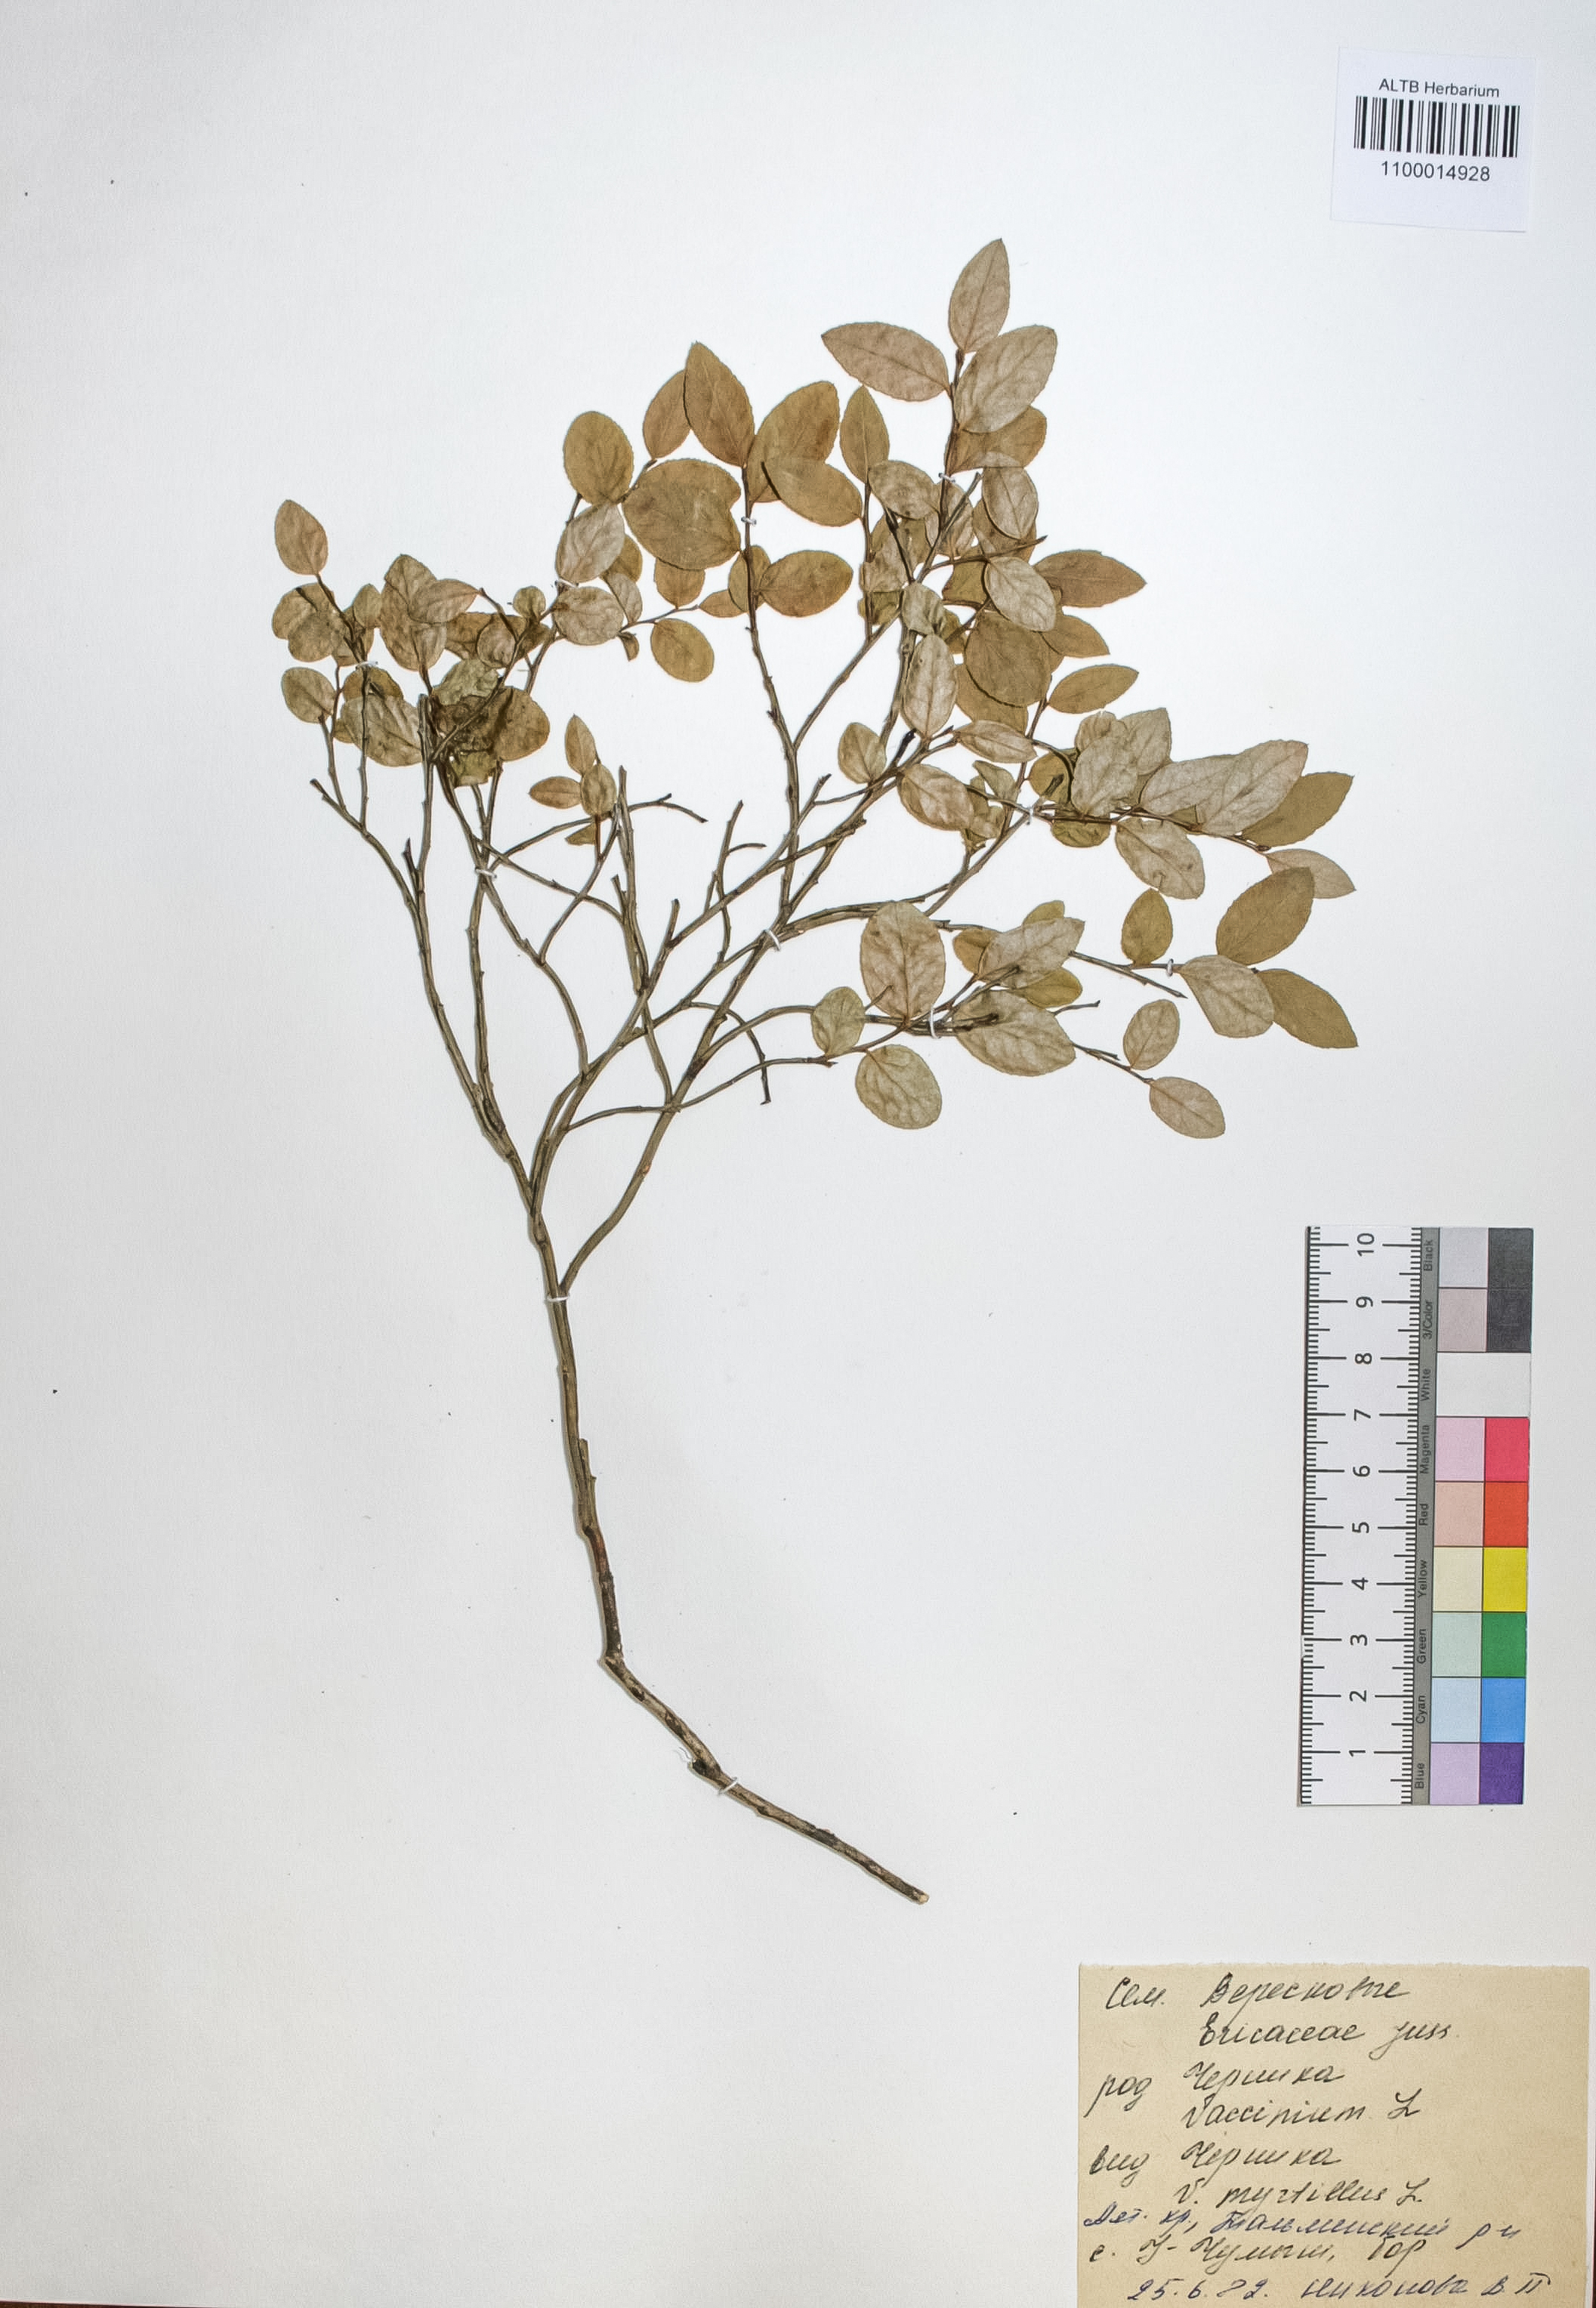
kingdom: Plantae
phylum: Tracheophyta
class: Magnoliopsida
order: Ericales
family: Ericaceae
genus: Vaccinium
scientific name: Vaccinium myrtillus
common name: Bilberry
